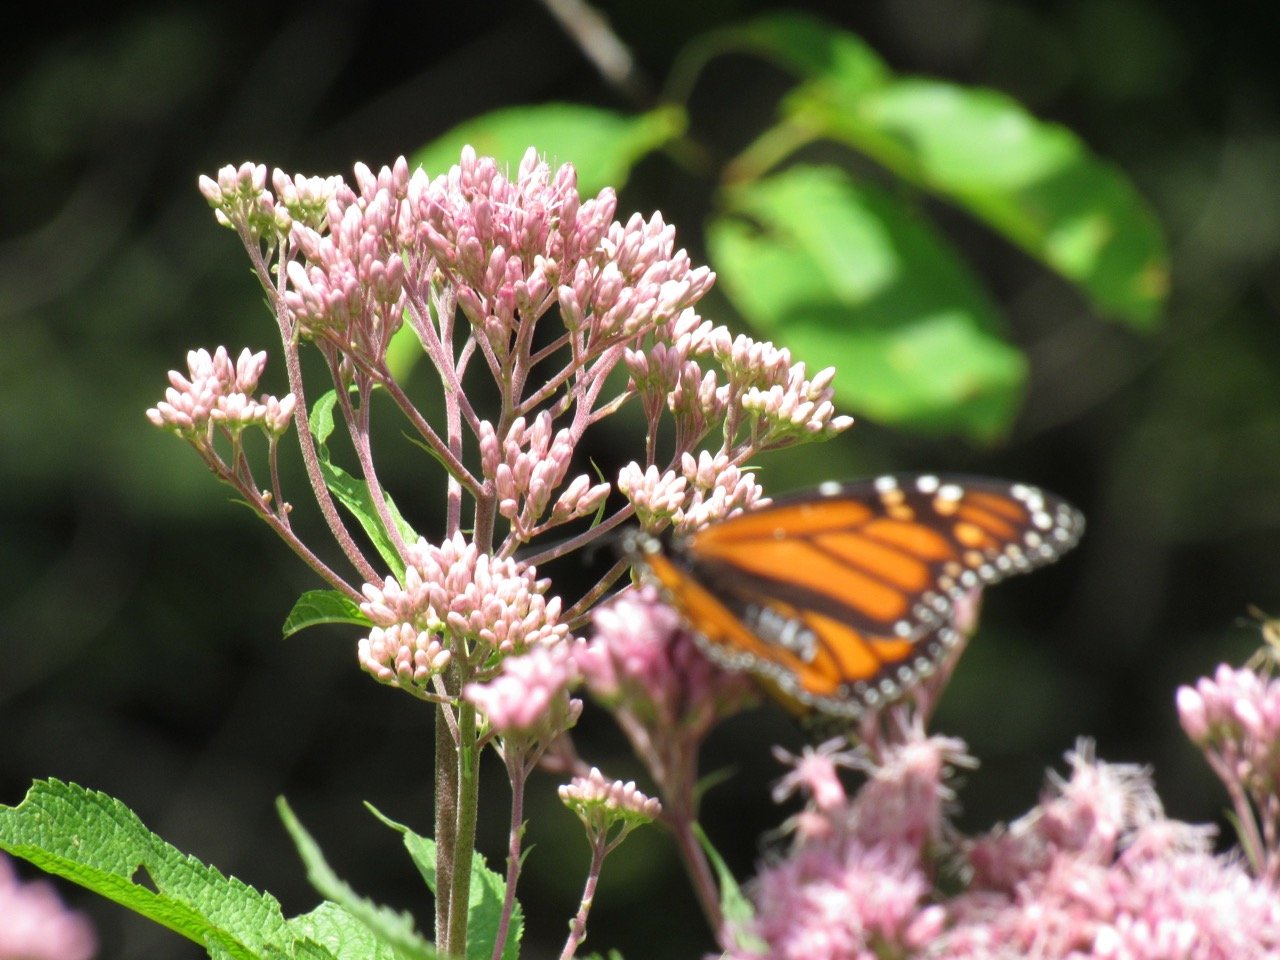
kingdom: Animalia
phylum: Arthropoda
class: Insecta
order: Lepidoptera
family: Nymphalidae
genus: Danaus
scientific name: Danaus plexippus
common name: Monarch
